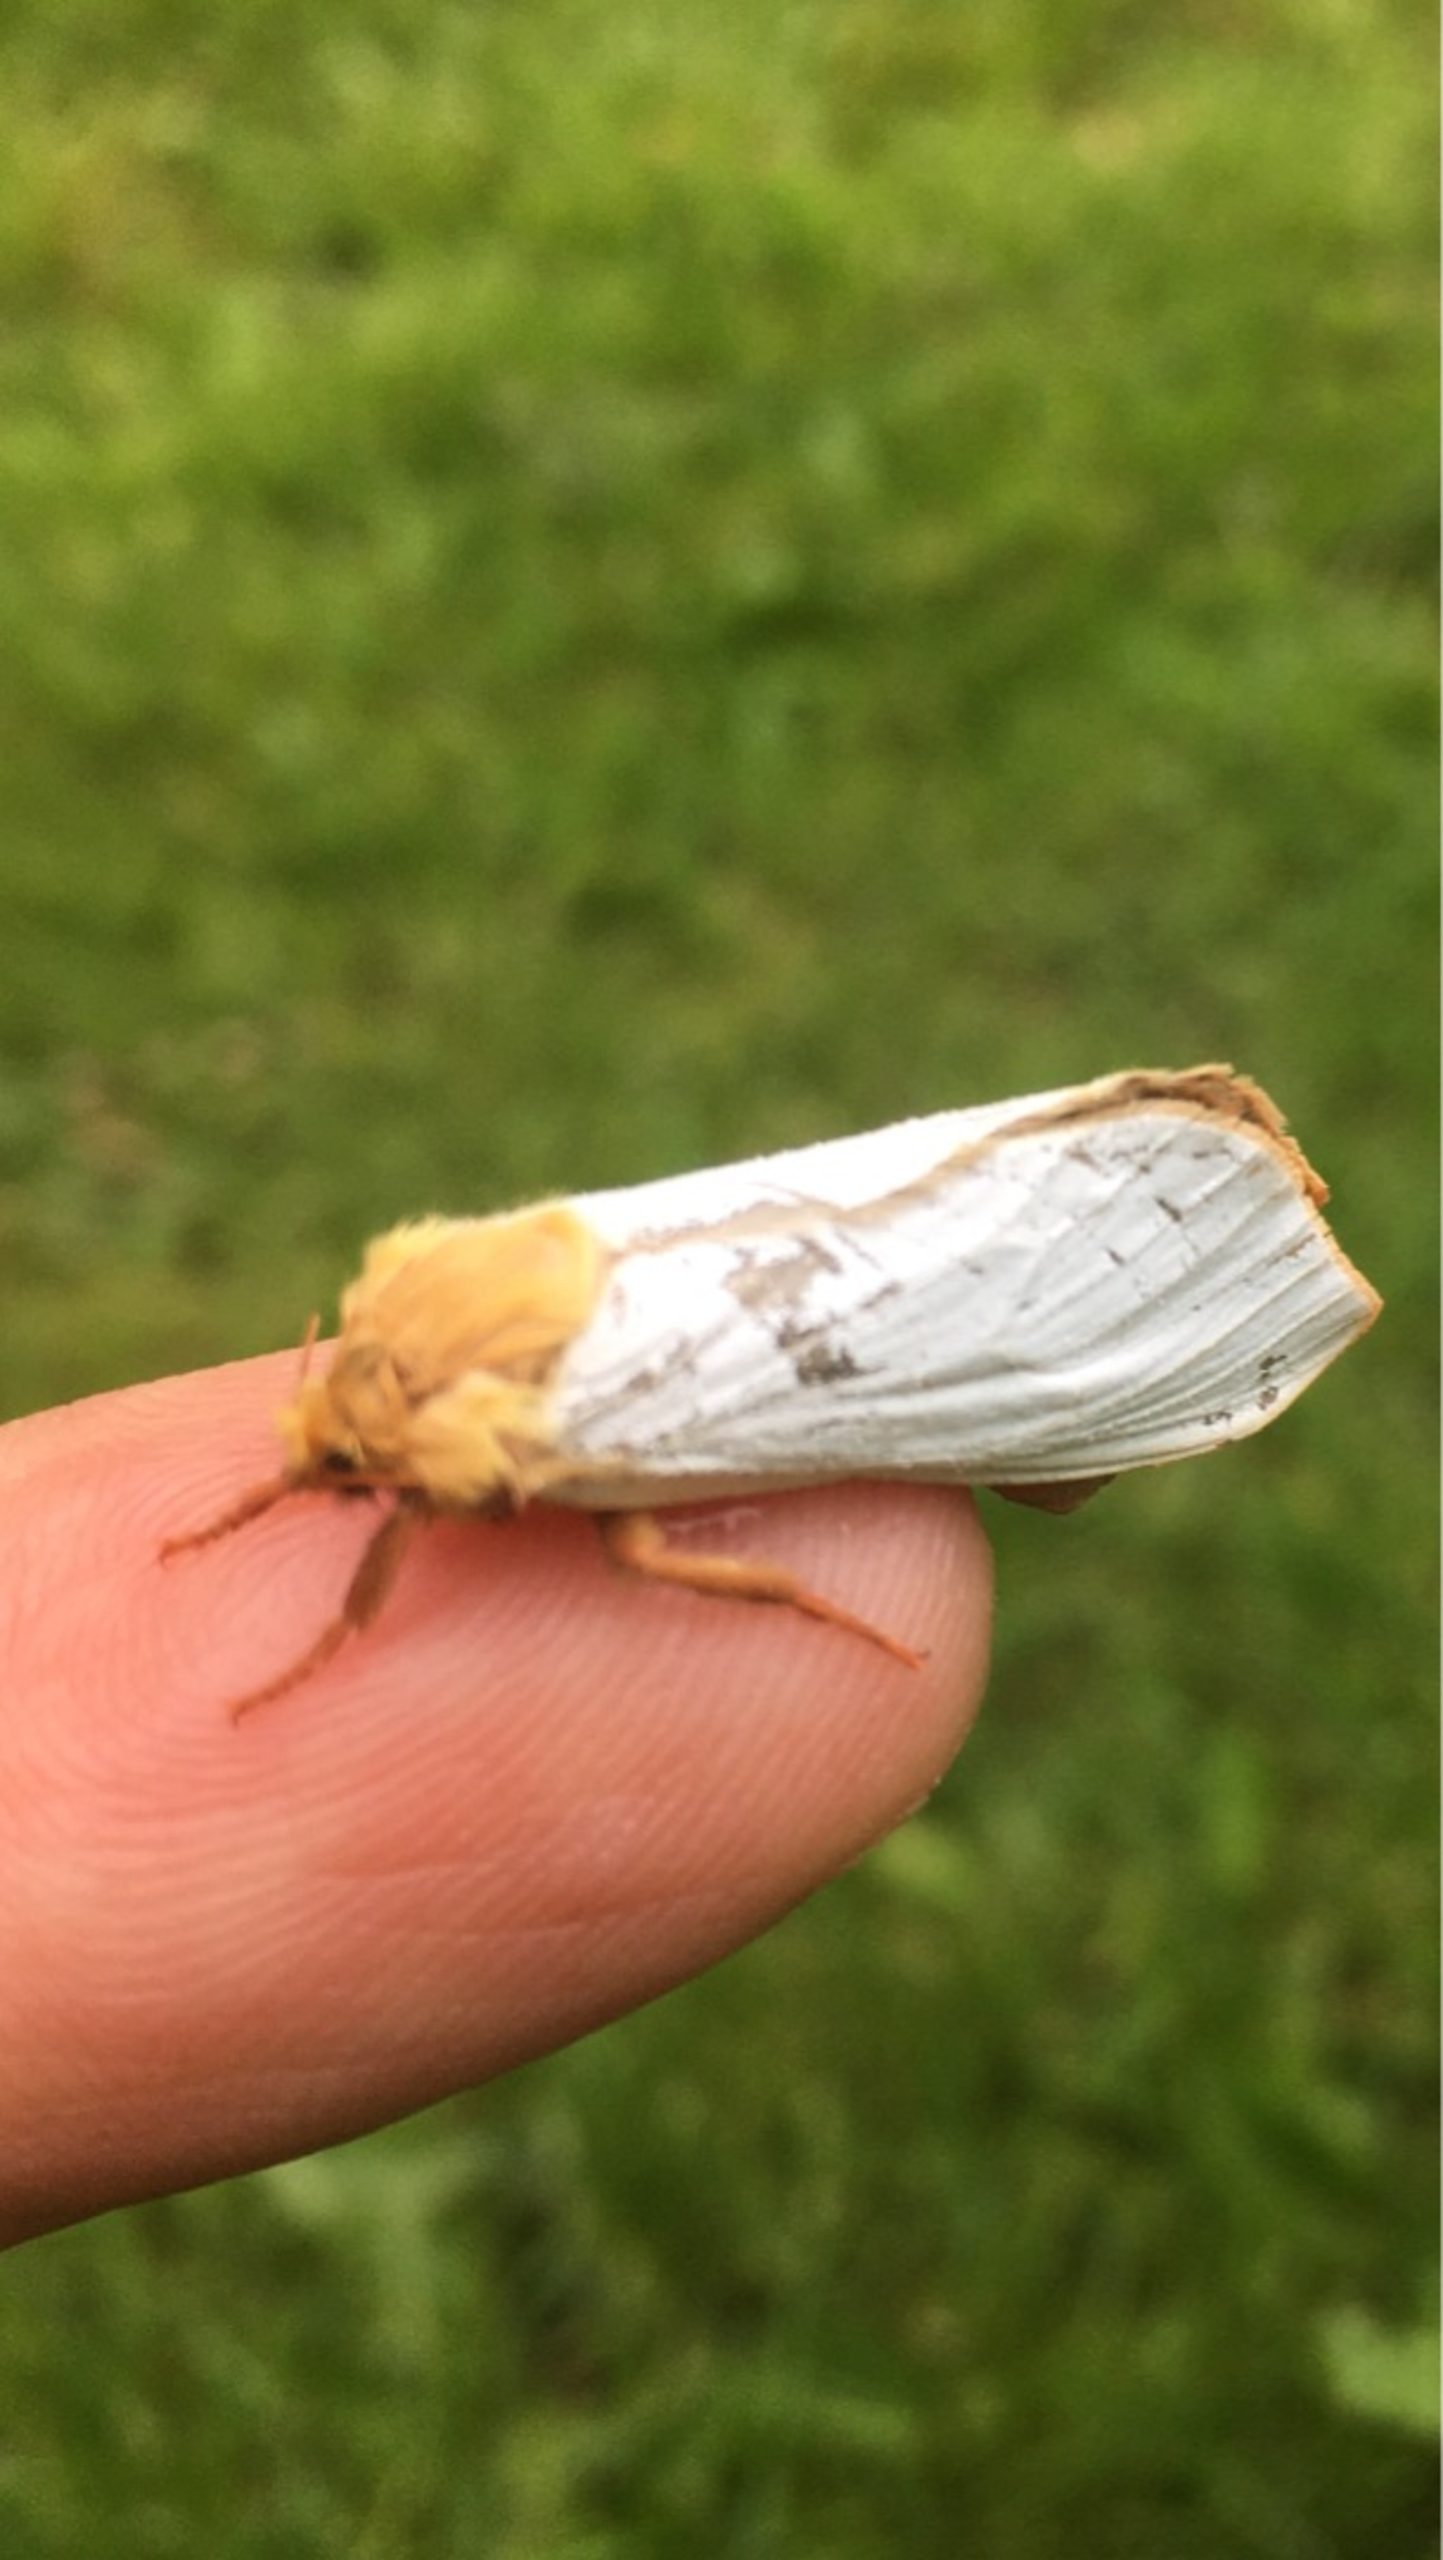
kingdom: Animalia
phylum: Arthropoda
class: Insecta
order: Lepidoptera
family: Hepialidae
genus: Hepialus
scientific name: Hepialus humuli
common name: Humlerodæder
